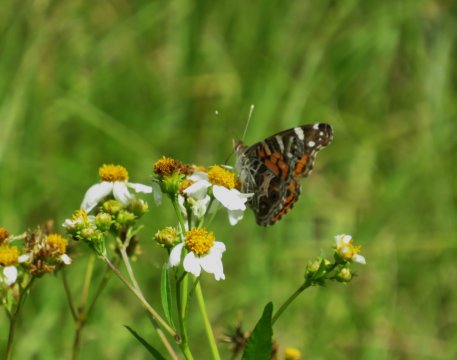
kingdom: Animalia
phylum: Arthropoda
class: Insecta
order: Lepidoptera
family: Nymphalidae
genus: Vanessa
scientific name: Vanessa virginiensis
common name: American Lady
